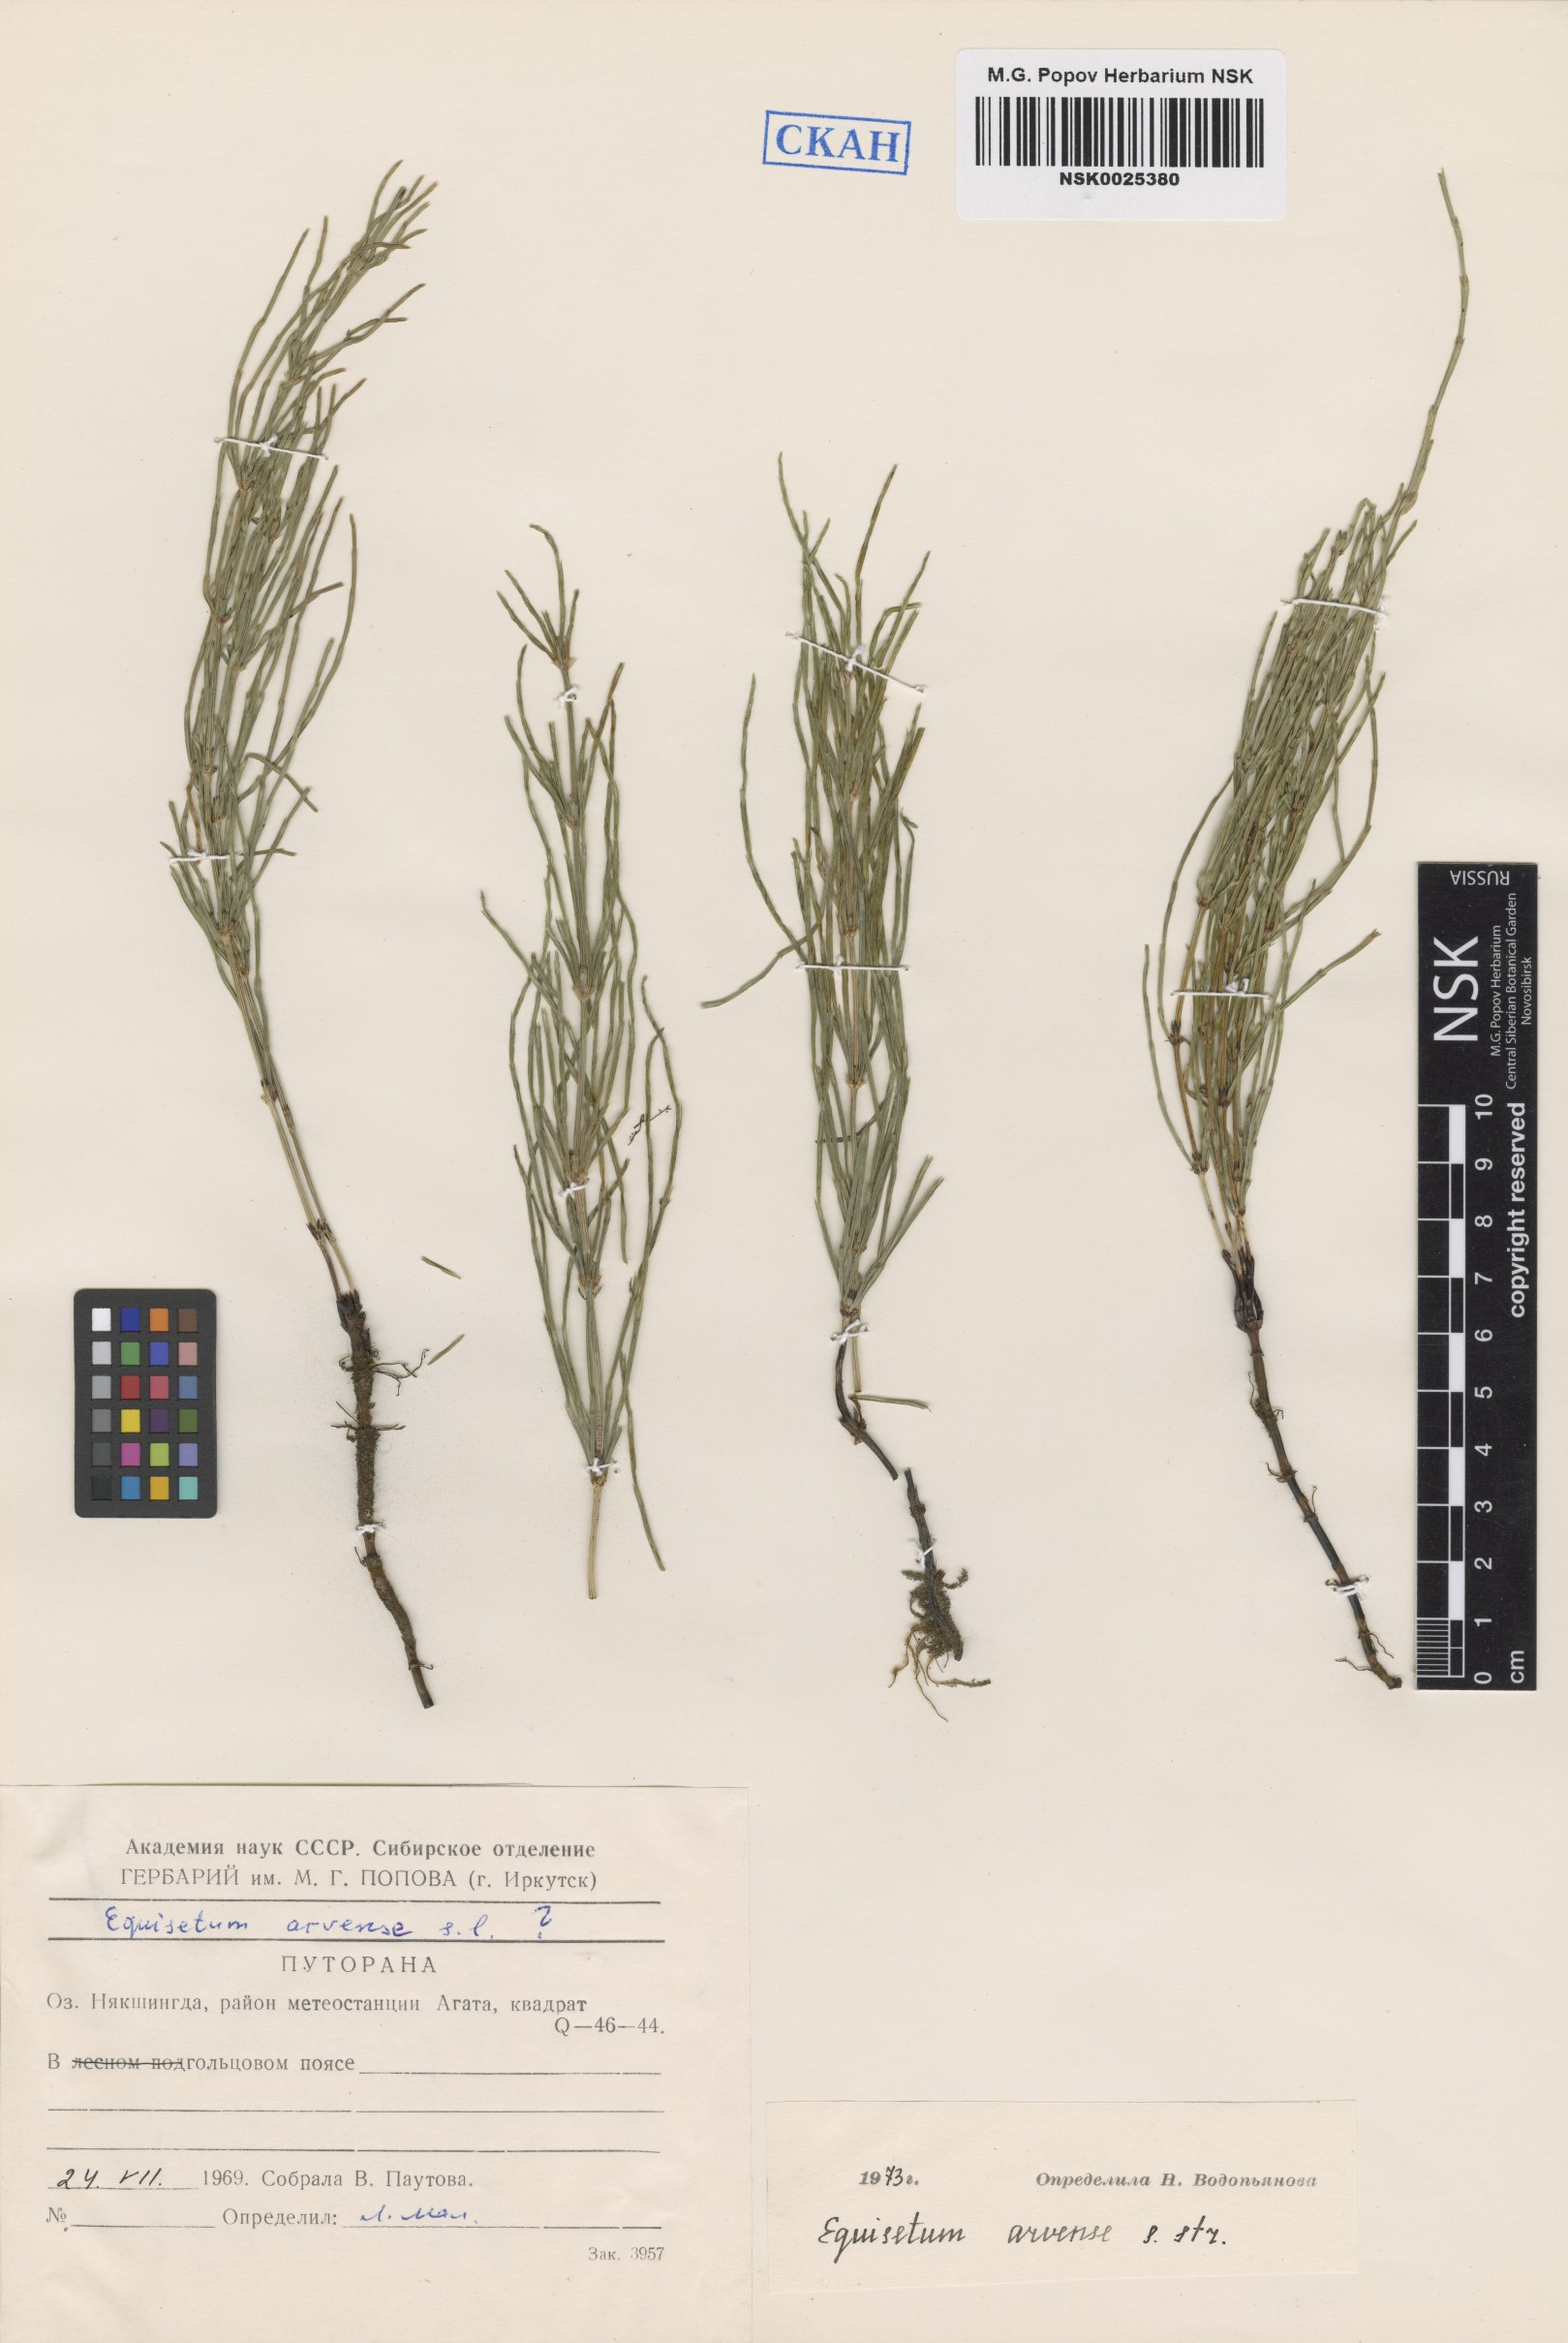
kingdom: Plantae
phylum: Tracheophyta
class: Polypodiopsida
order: Equisetales
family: Equisetaceae
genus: Equisetum
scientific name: Equisetum arvense
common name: Field horsetail
